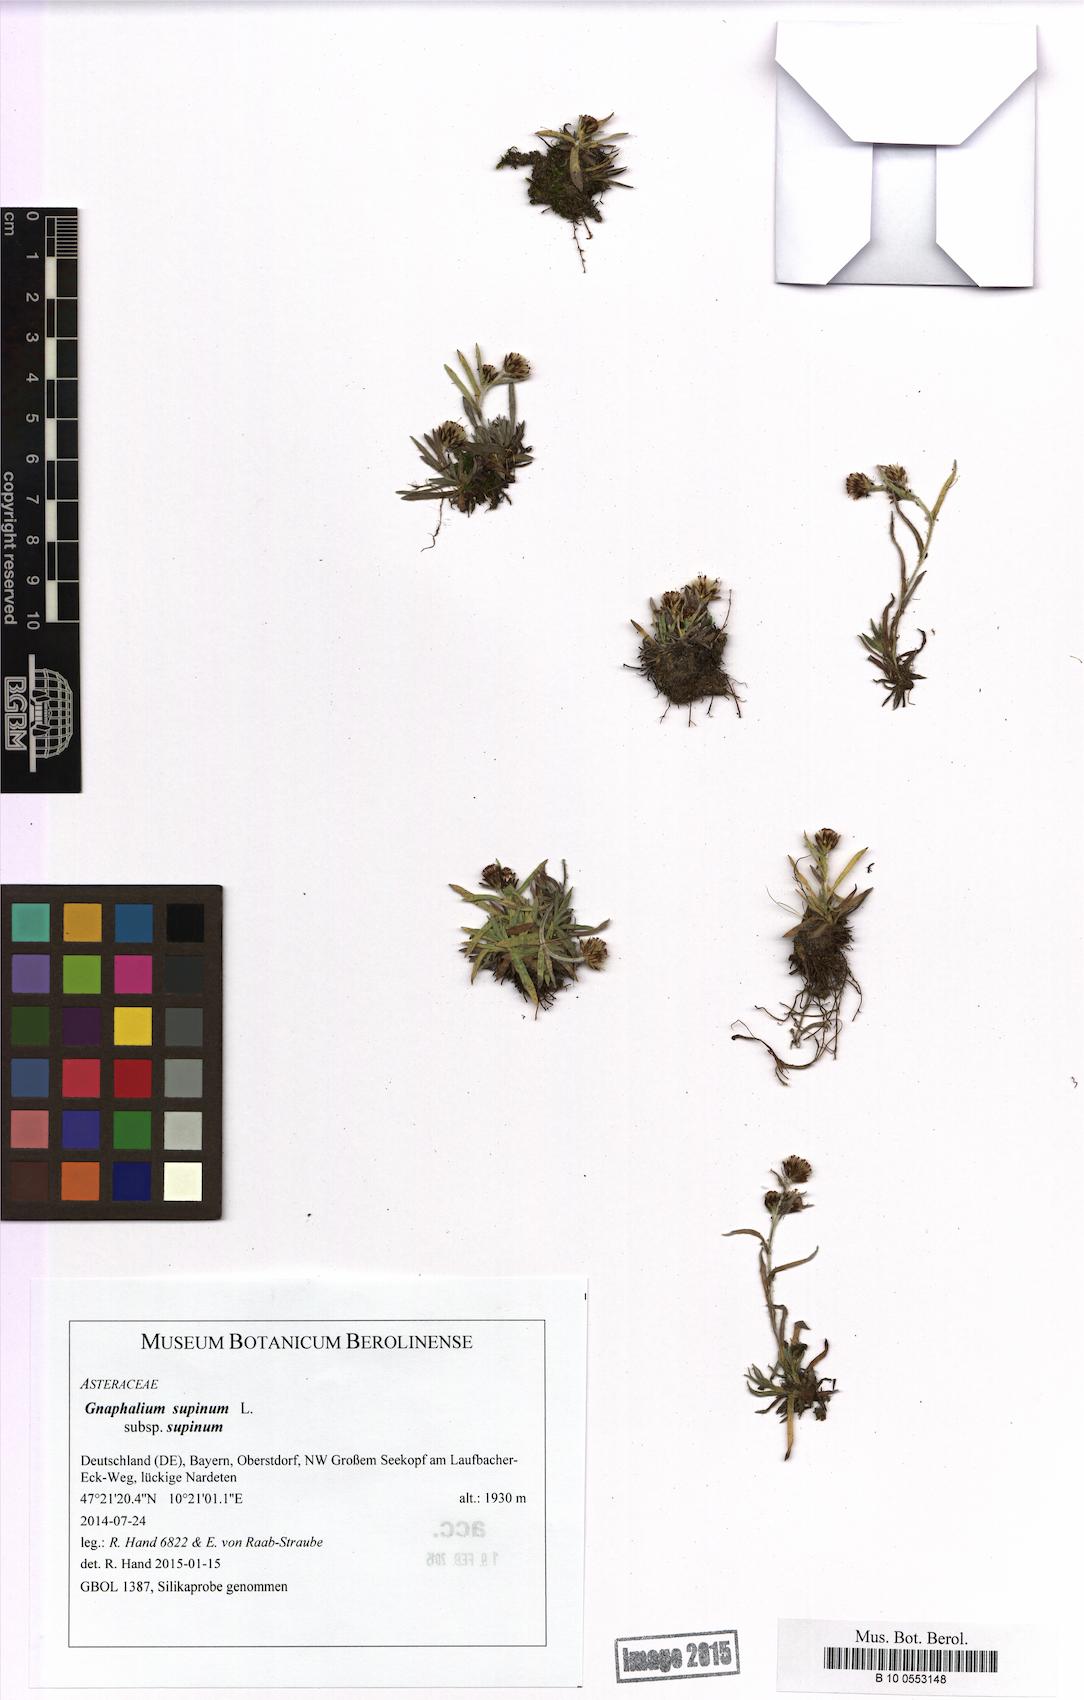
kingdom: Plantae
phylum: Tracheophyta
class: Magnoliopsida
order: Asterales
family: Asteraceae
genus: Omalotheca
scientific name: Omalotheca supina
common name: Alpine arctic-cudweed
